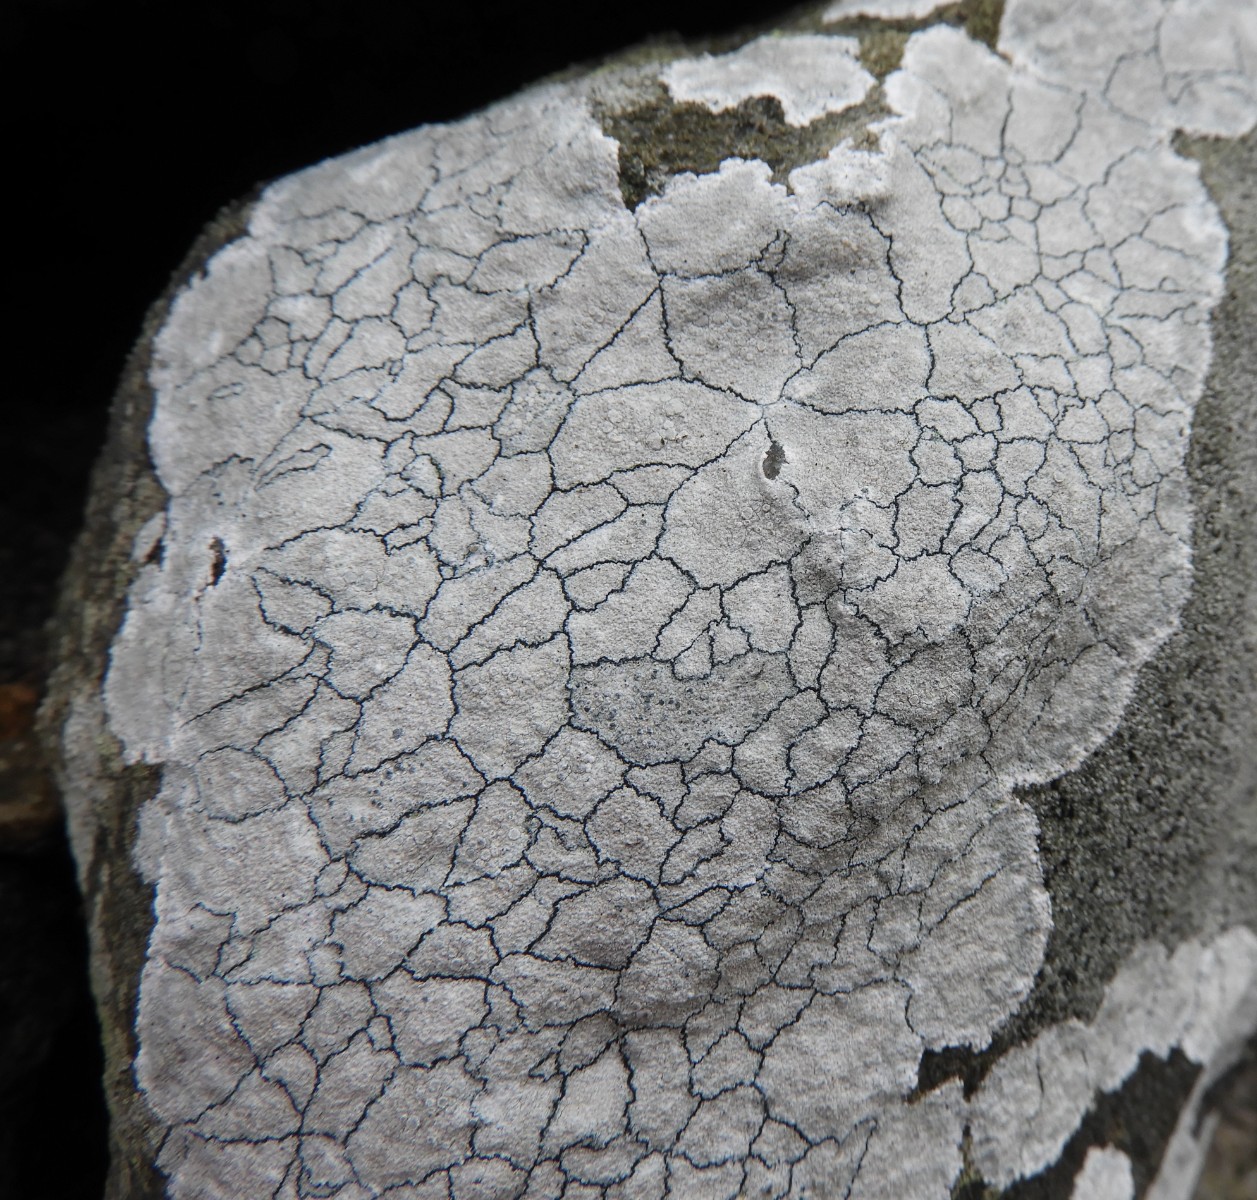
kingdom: Fungi
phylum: Ascomycota
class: Lecanoromycetes
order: Lecanorales
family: Lecanoraceae
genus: Glaucomaria
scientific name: Glaucomaria rupicola
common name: stengærde-kantskivelav
